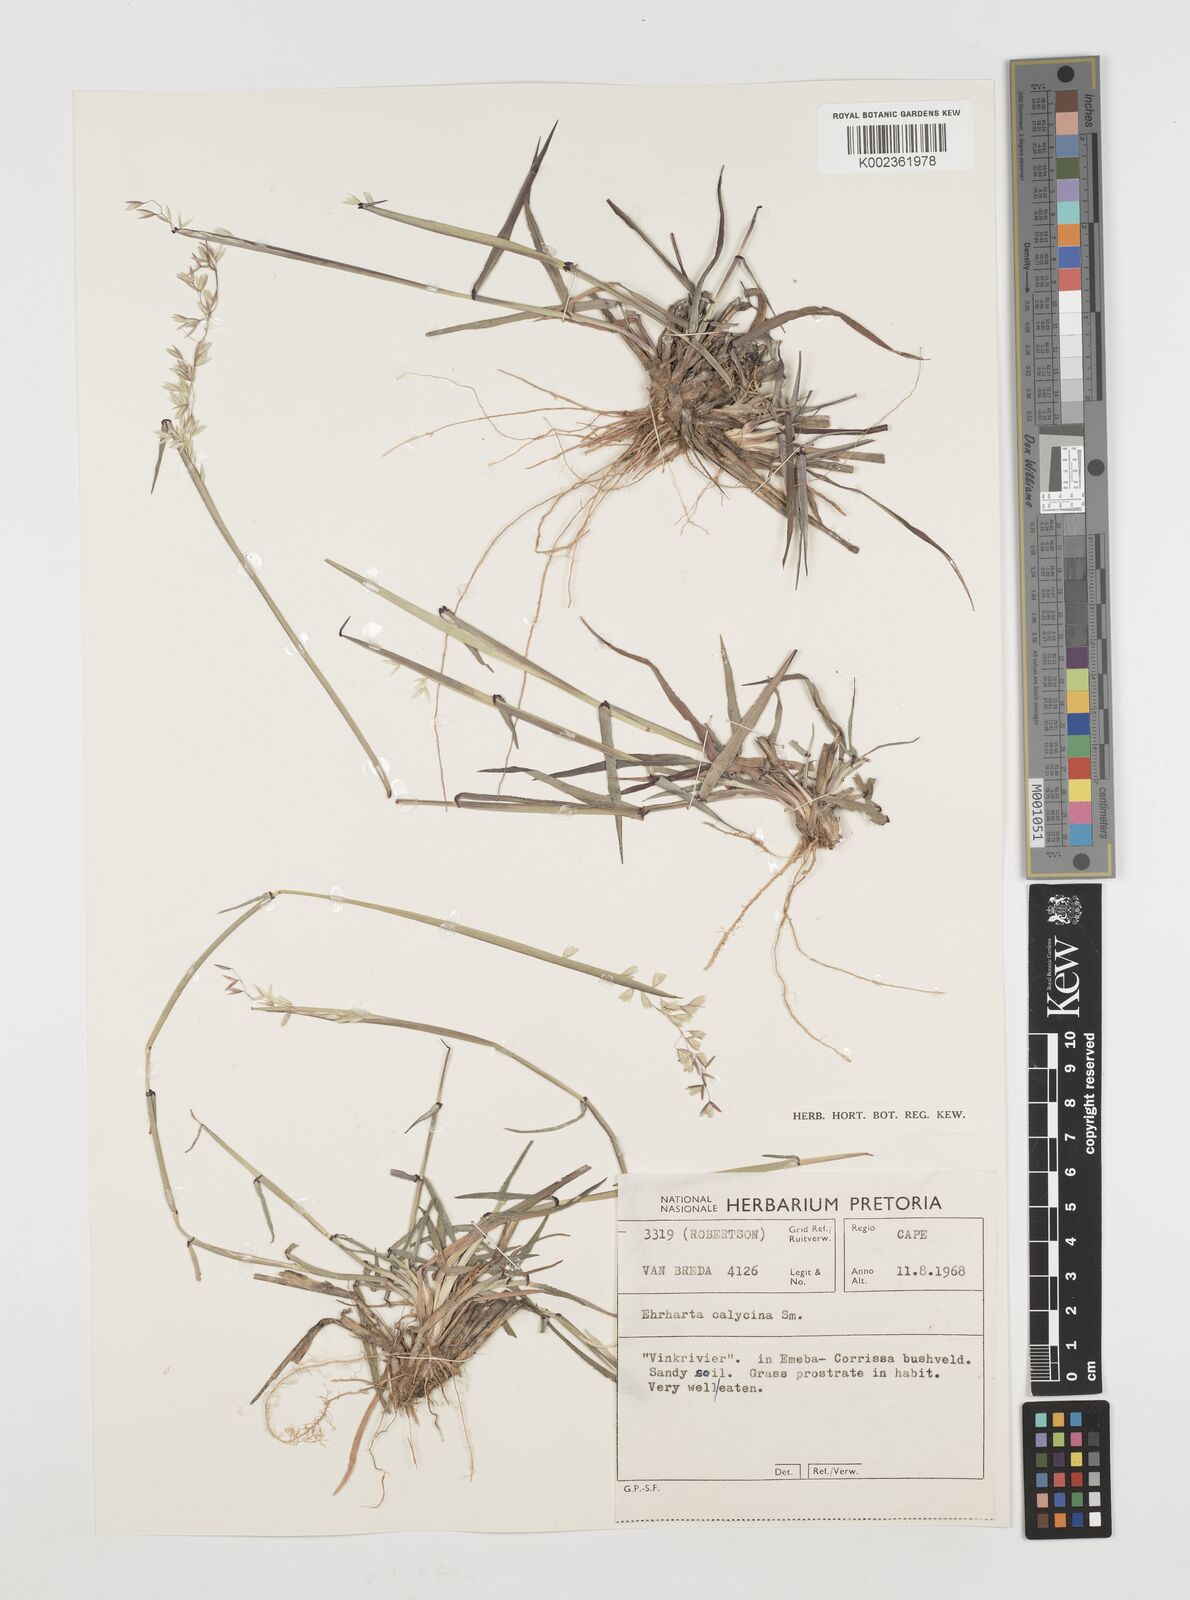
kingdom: Plantae
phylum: Tracheophyta
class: Liliopsida
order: Poales
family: Poaceae
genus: Ehrharta
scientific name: Ehrharta calycina
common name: Perennial veldtgrass
